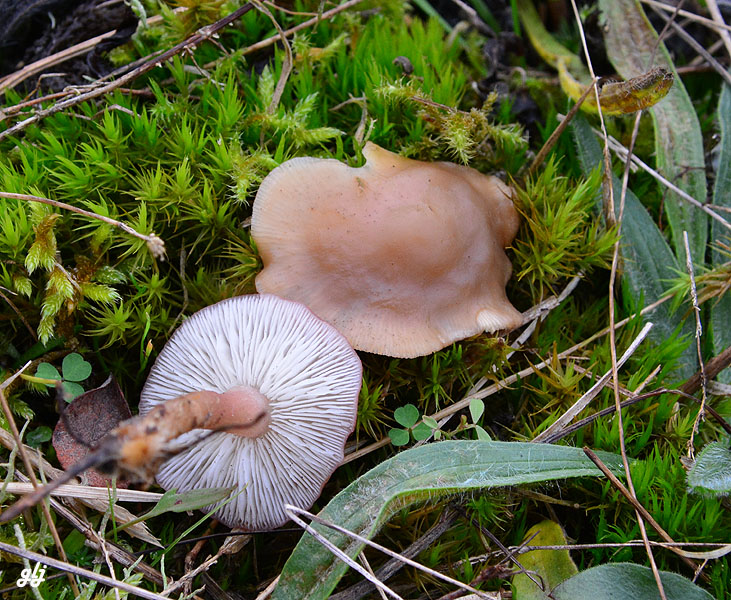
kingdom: Fungi
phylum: Basidiomycota
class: Agaricomycetes
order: Agaricales
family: Lyophyllaceae
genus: Calocybe
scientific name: Calocybe carnea
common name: rosa fagerhat
